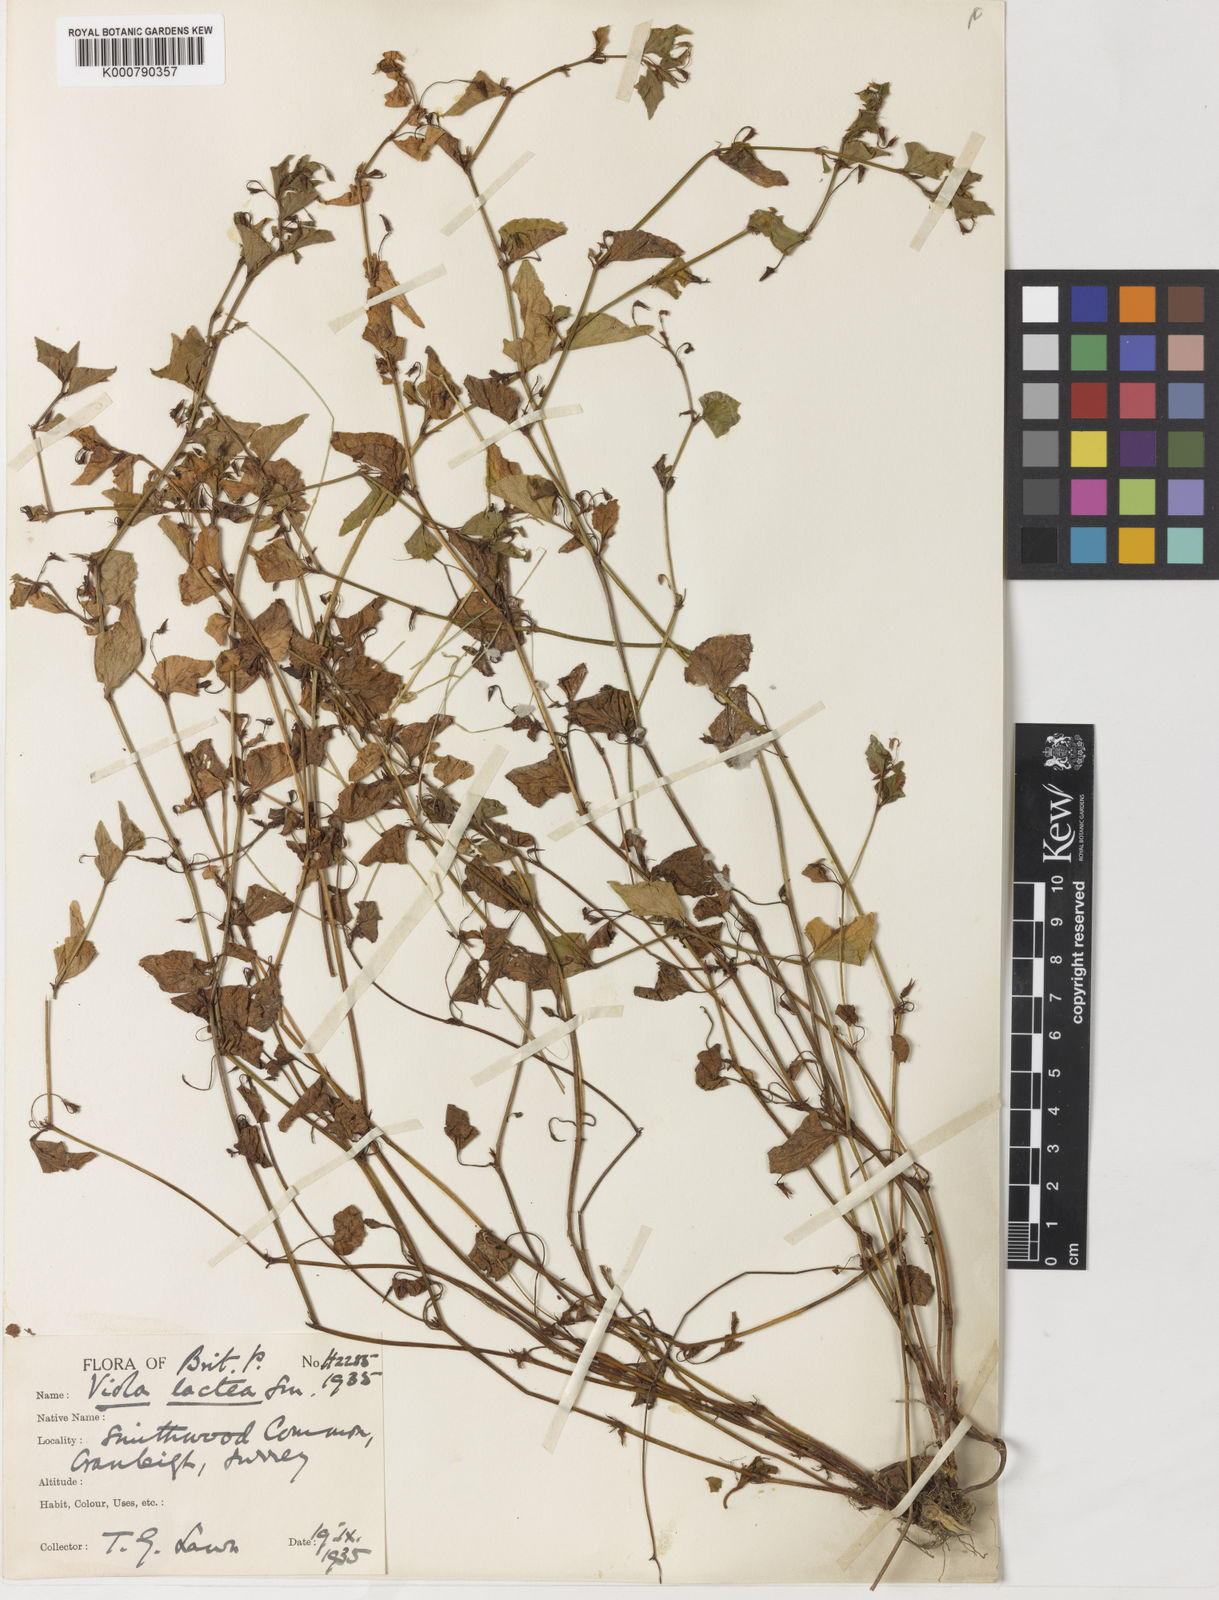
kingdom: Plantae
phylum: Tracheophyta
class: Magnoliopsida
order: Malpighiales
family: Violaceae
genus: Viola
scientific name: Viola lactea
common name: Pale dog-violet
